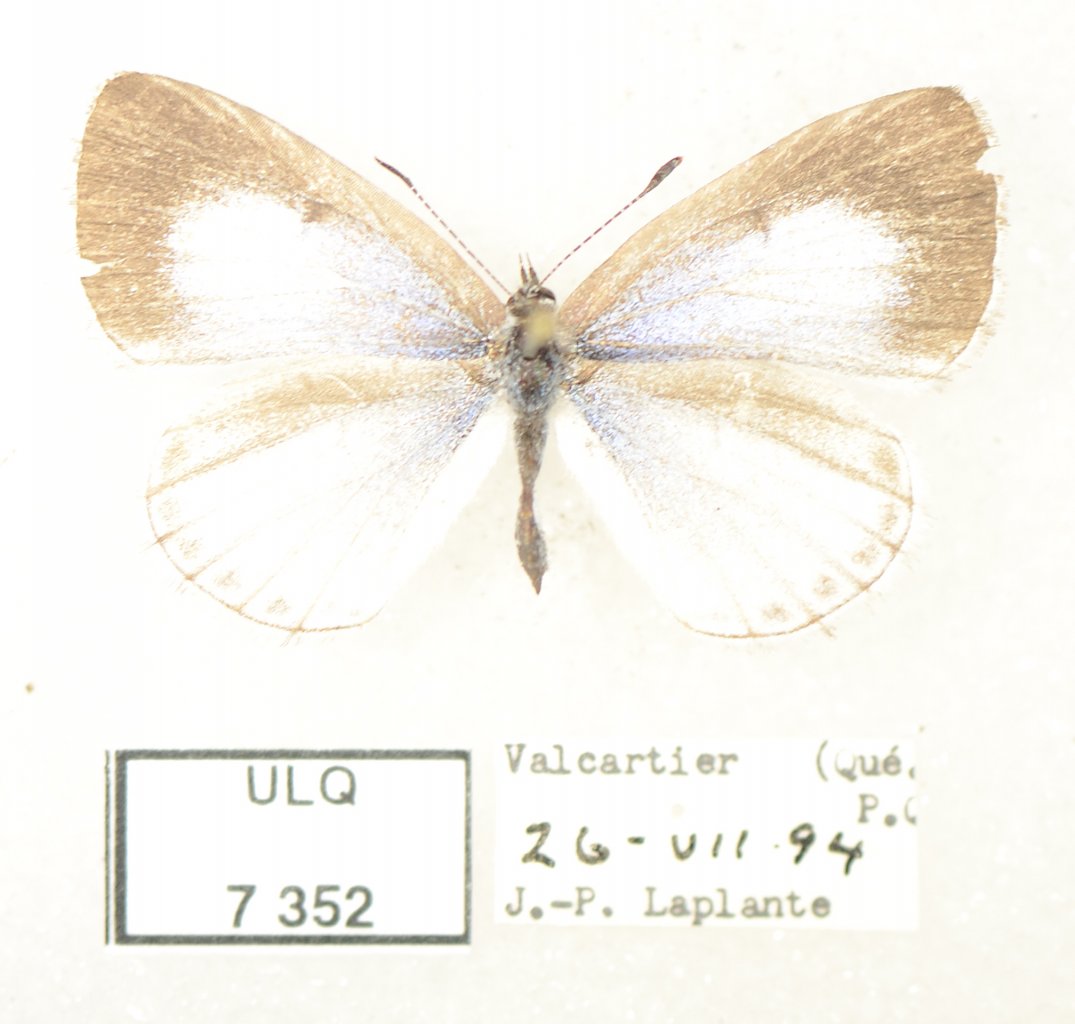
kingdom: Animalia
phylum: Arthropoda
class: Insecta
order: Lepidoptera
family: Lycaenidae
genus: Celastrina
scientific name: Celastrina lucia
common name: Northern Spring Azure
